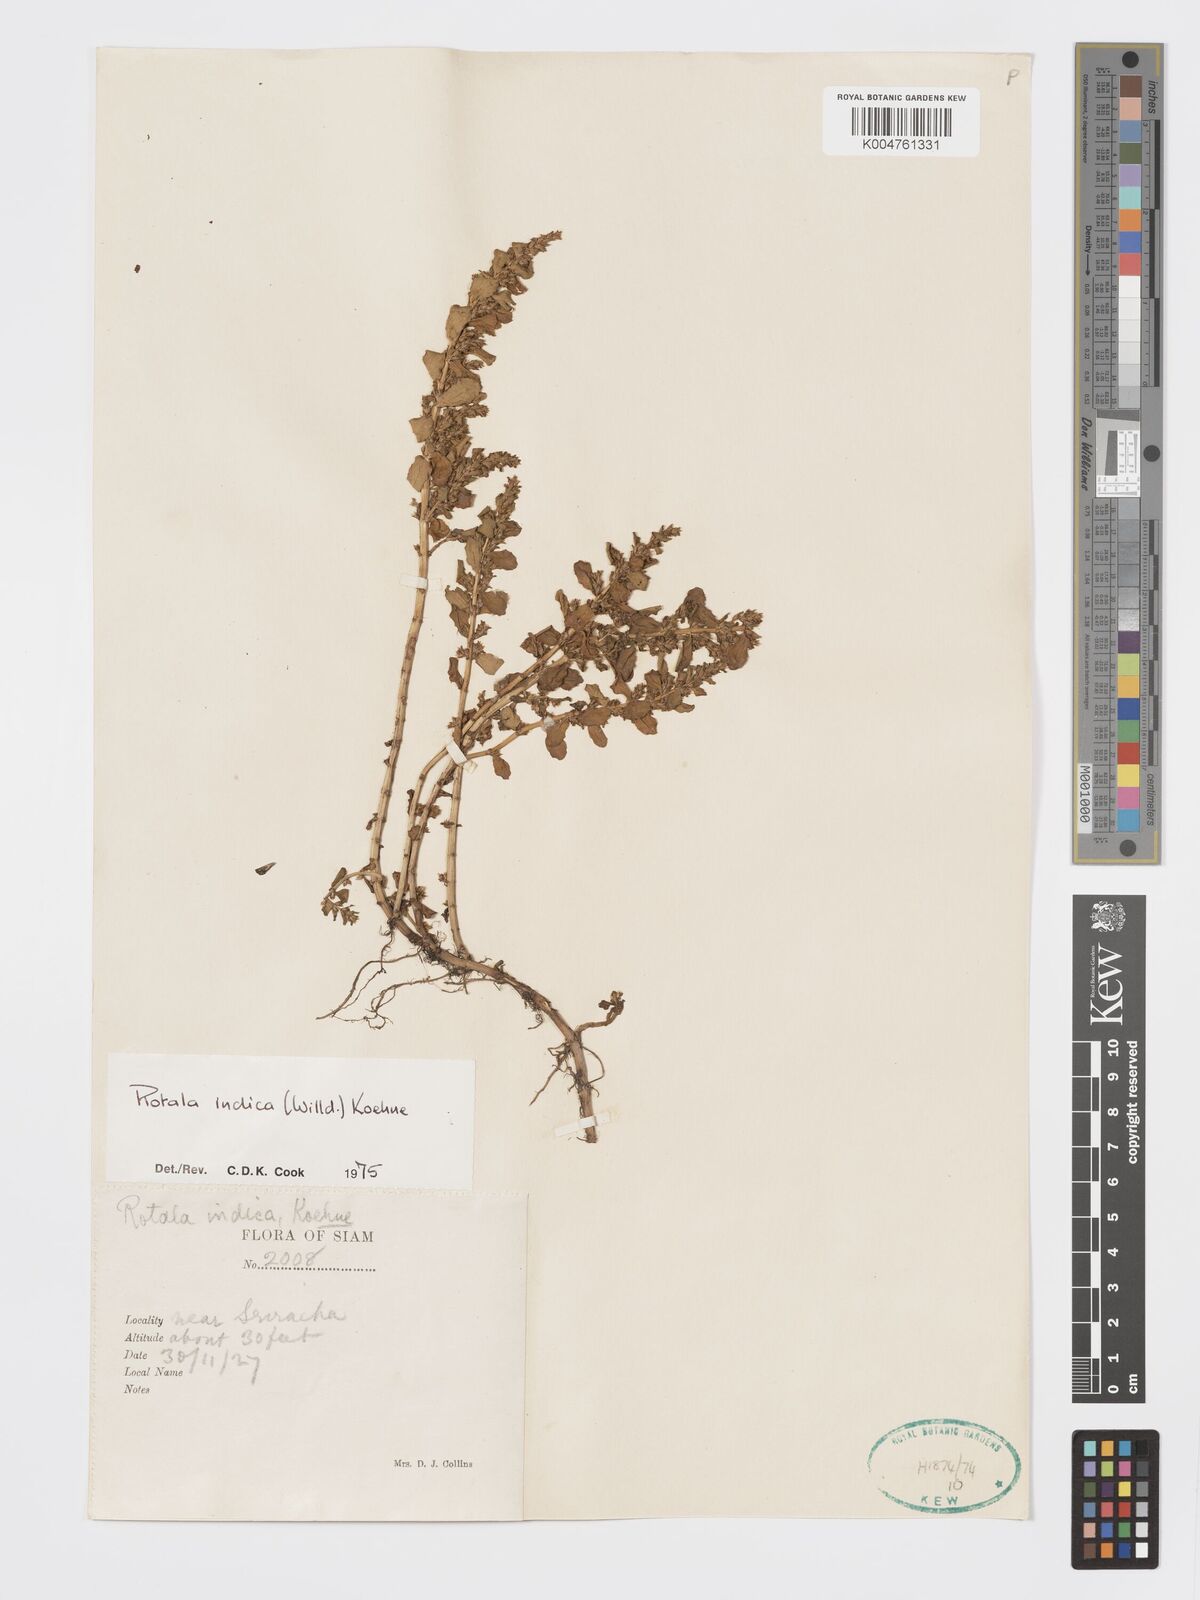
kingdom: Plantae
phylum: Tracheophyta
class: Magnoliopsida
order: Myrtales
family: Lythraceae
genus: Rotala
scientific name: Rotala indica
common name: Indian toothcup
